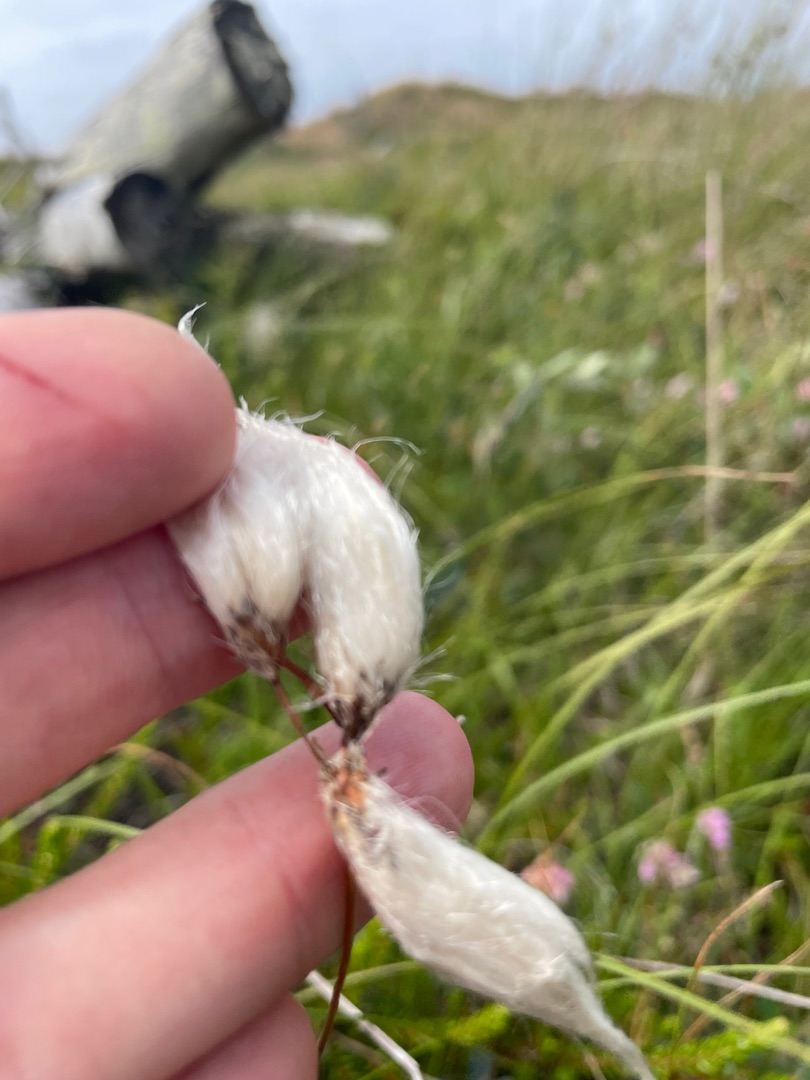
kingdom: Plantae
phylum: Tracheophyta
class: Liliopsida
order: Poales
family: Cyperaceae
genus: Eriophorum
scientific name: Eriophorum angustifolium
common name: Smalbladet kæruld
